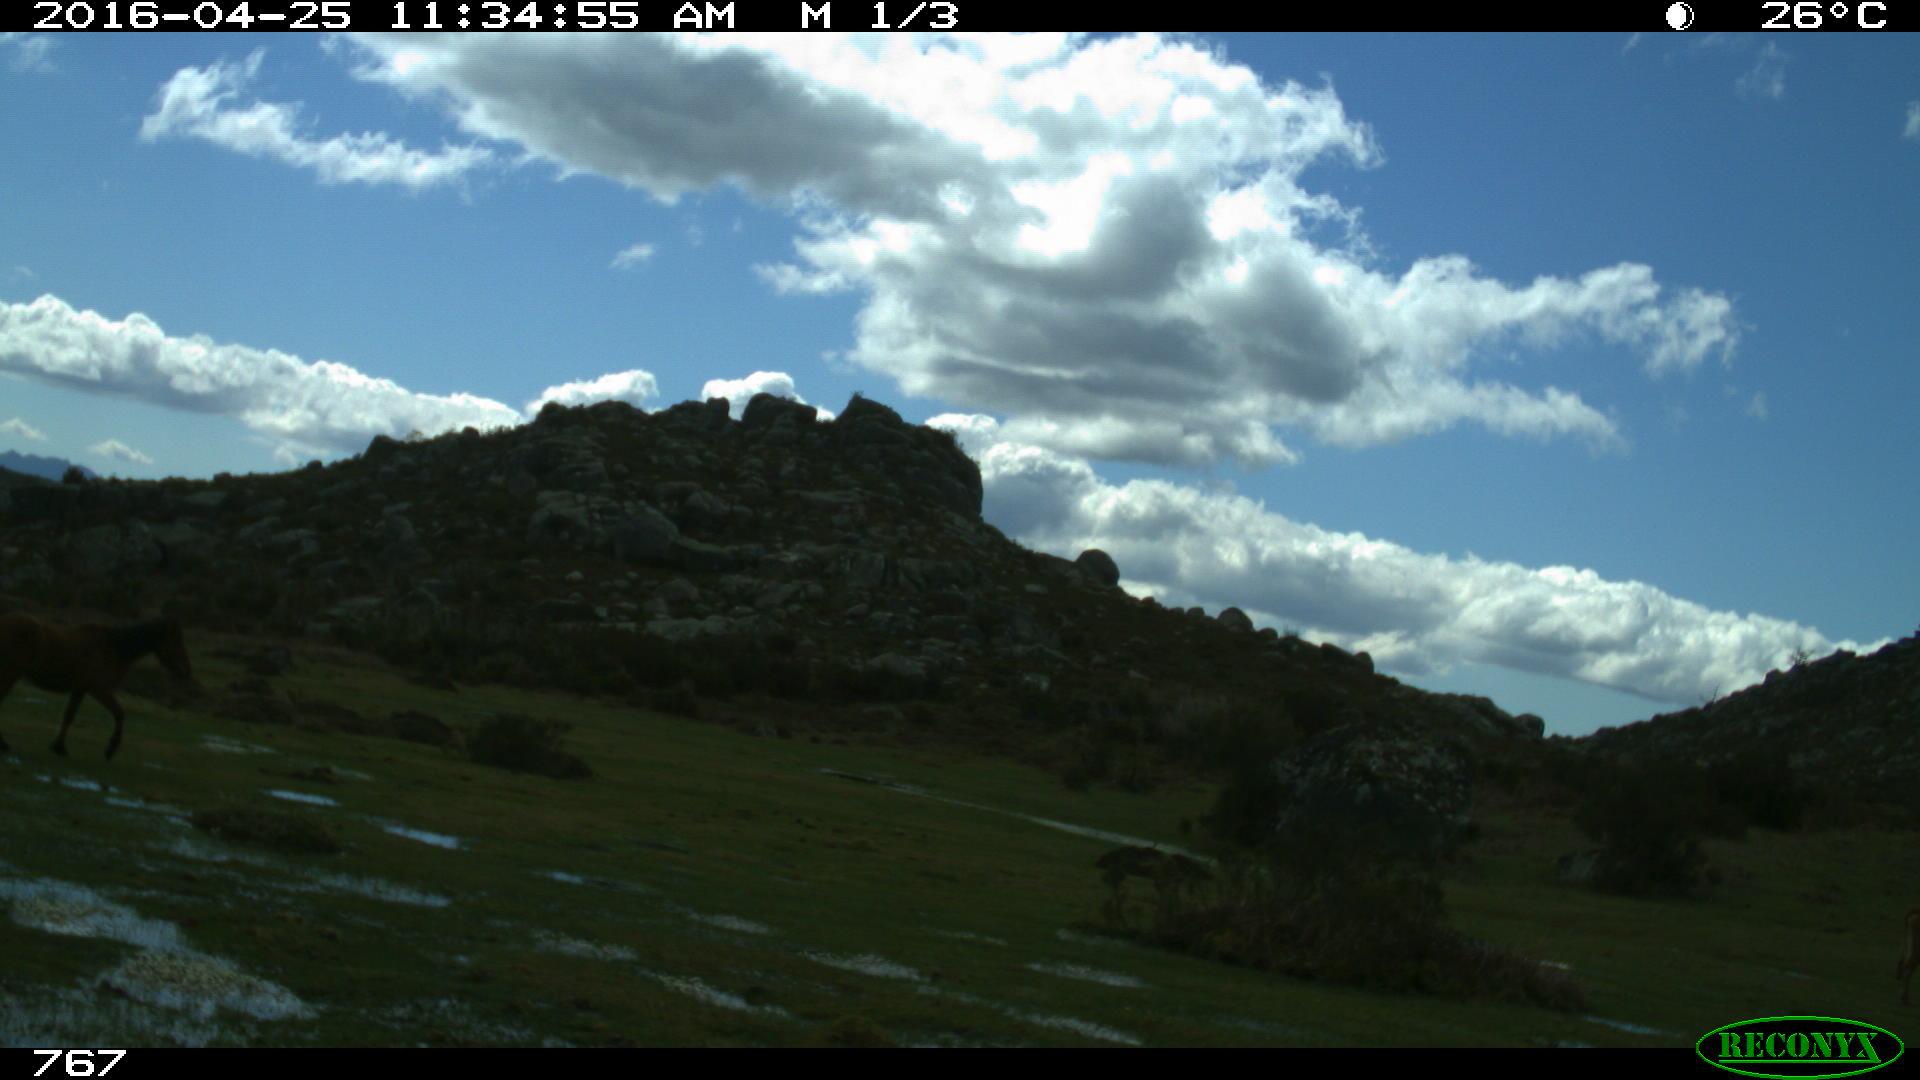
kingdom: Animalia
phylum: Chordata
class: Mammalia
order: Perissodactyla
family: Equidae
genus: Equus
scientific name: Equus caballus
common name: Horse
